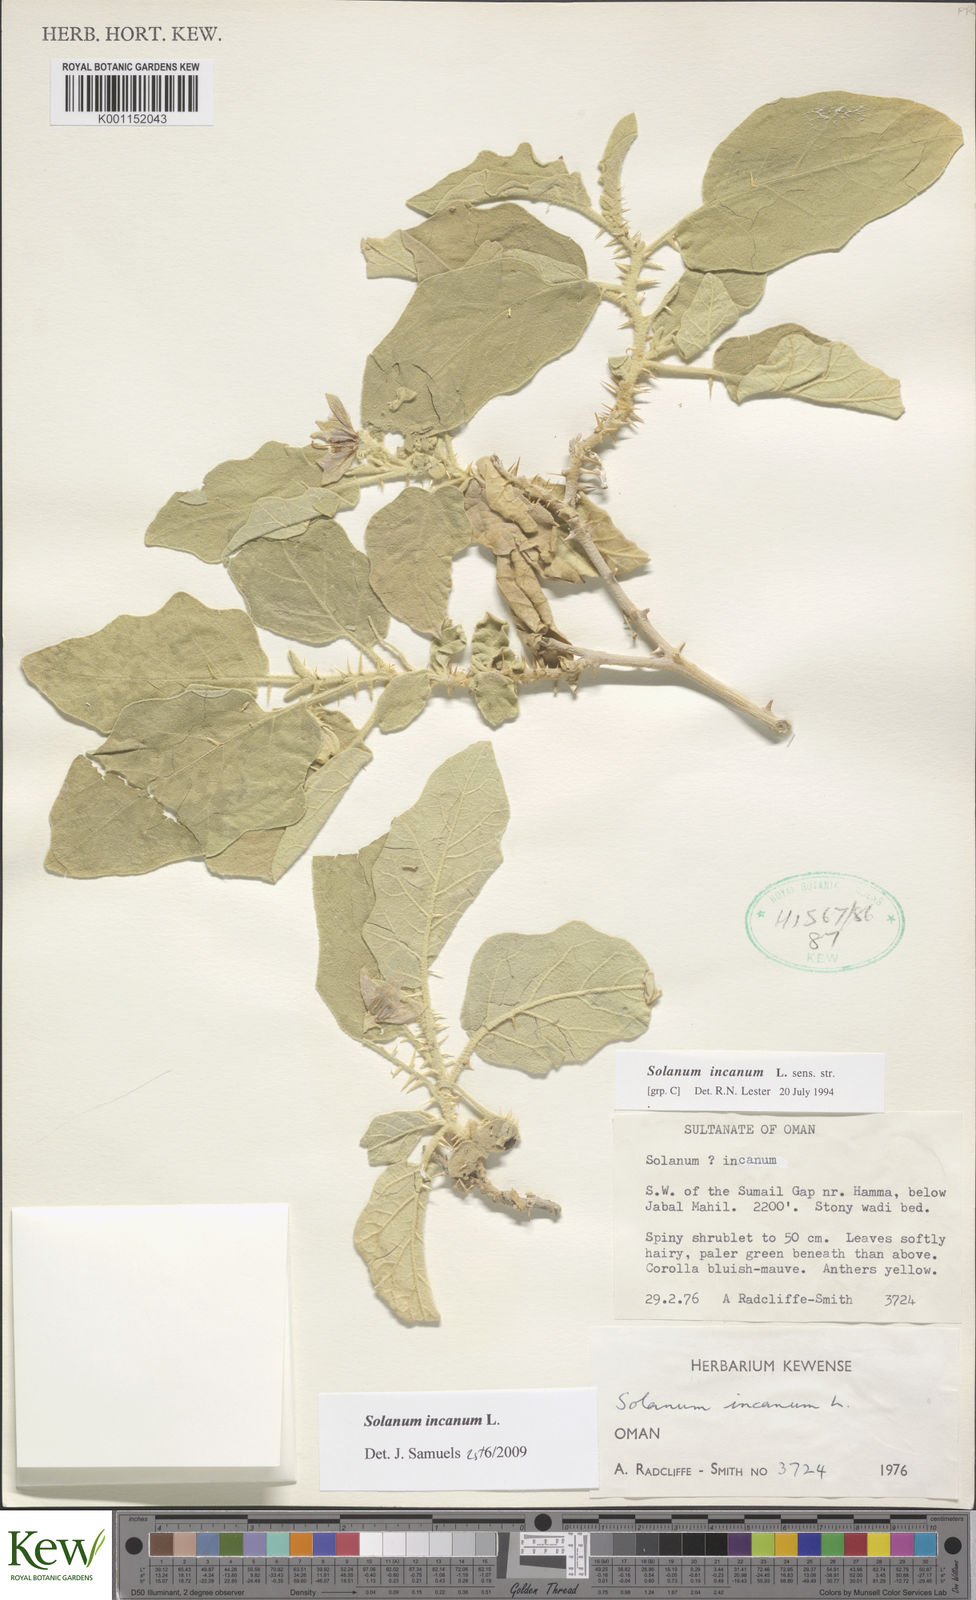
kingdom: Plantae
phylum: Tracheophyta
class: Magnoliopsida
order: Solanales
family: Solanaceae
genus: Solanum
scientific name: Solanum incanum
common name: Bitter apple
